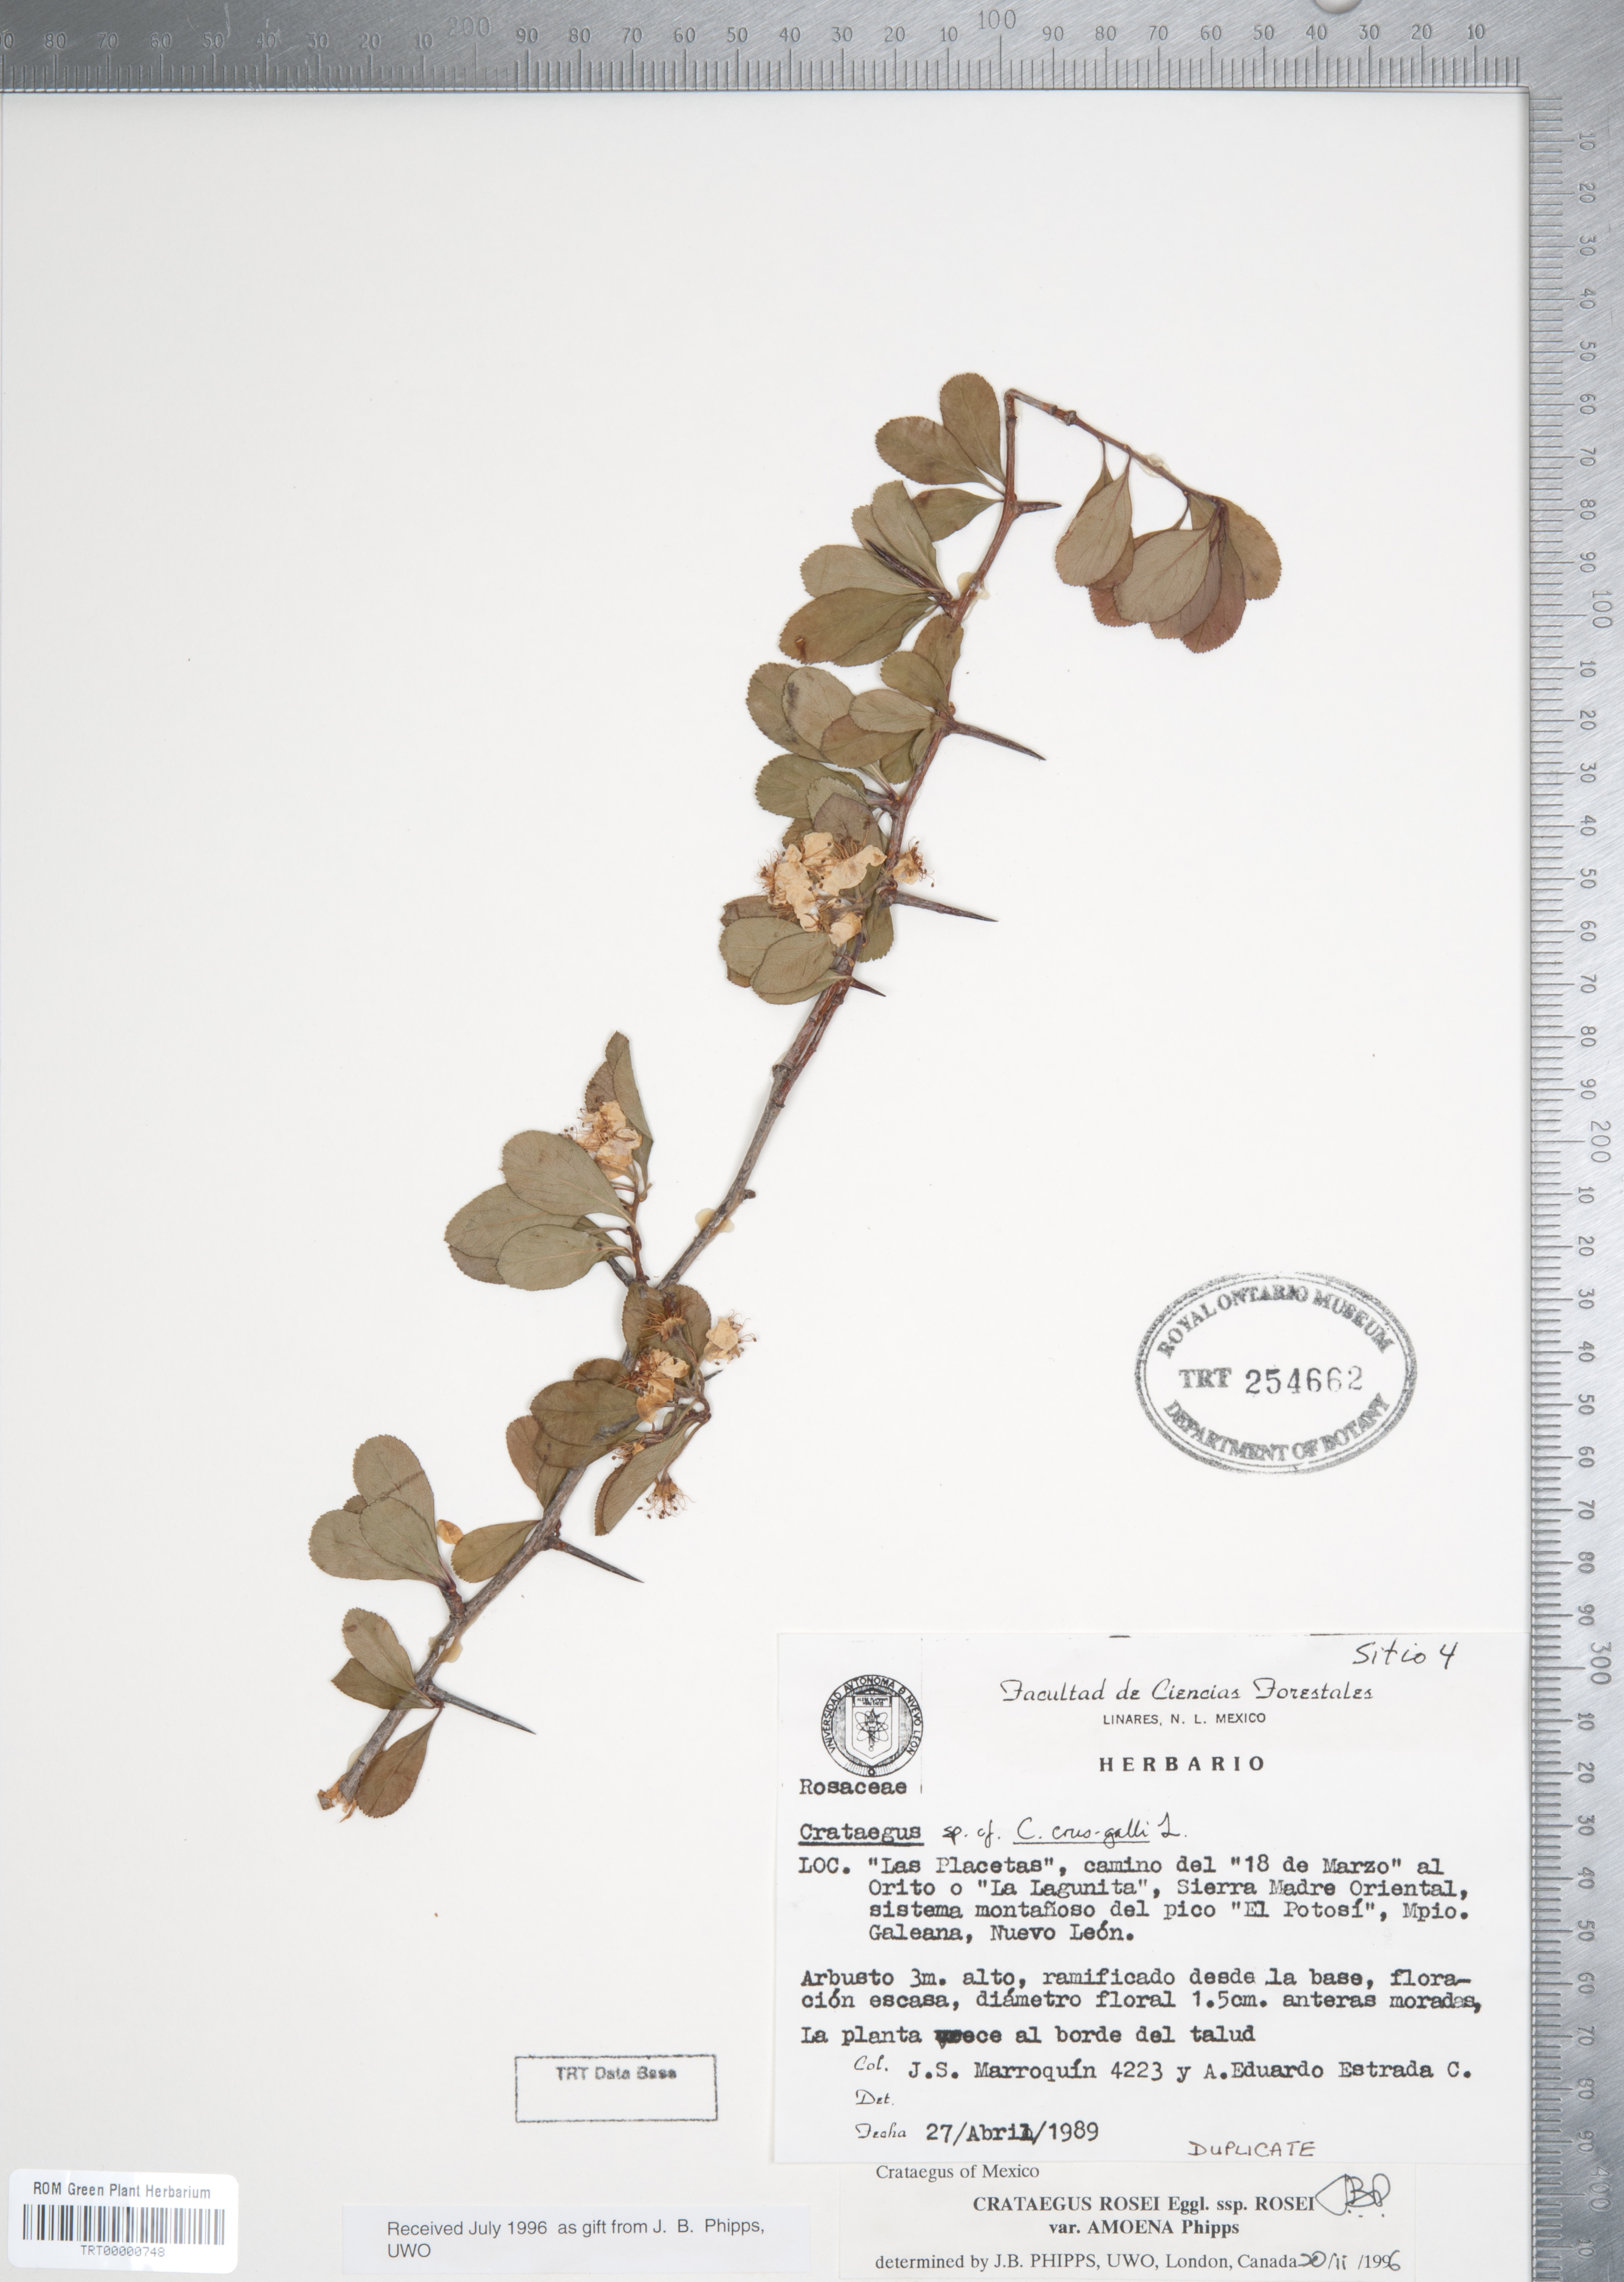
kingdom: Plantae
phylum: Tracheophyta
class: Magnoliopsida
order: Rosales
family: Rosaceae
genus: Crataegus
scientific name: Crataegus rosei
